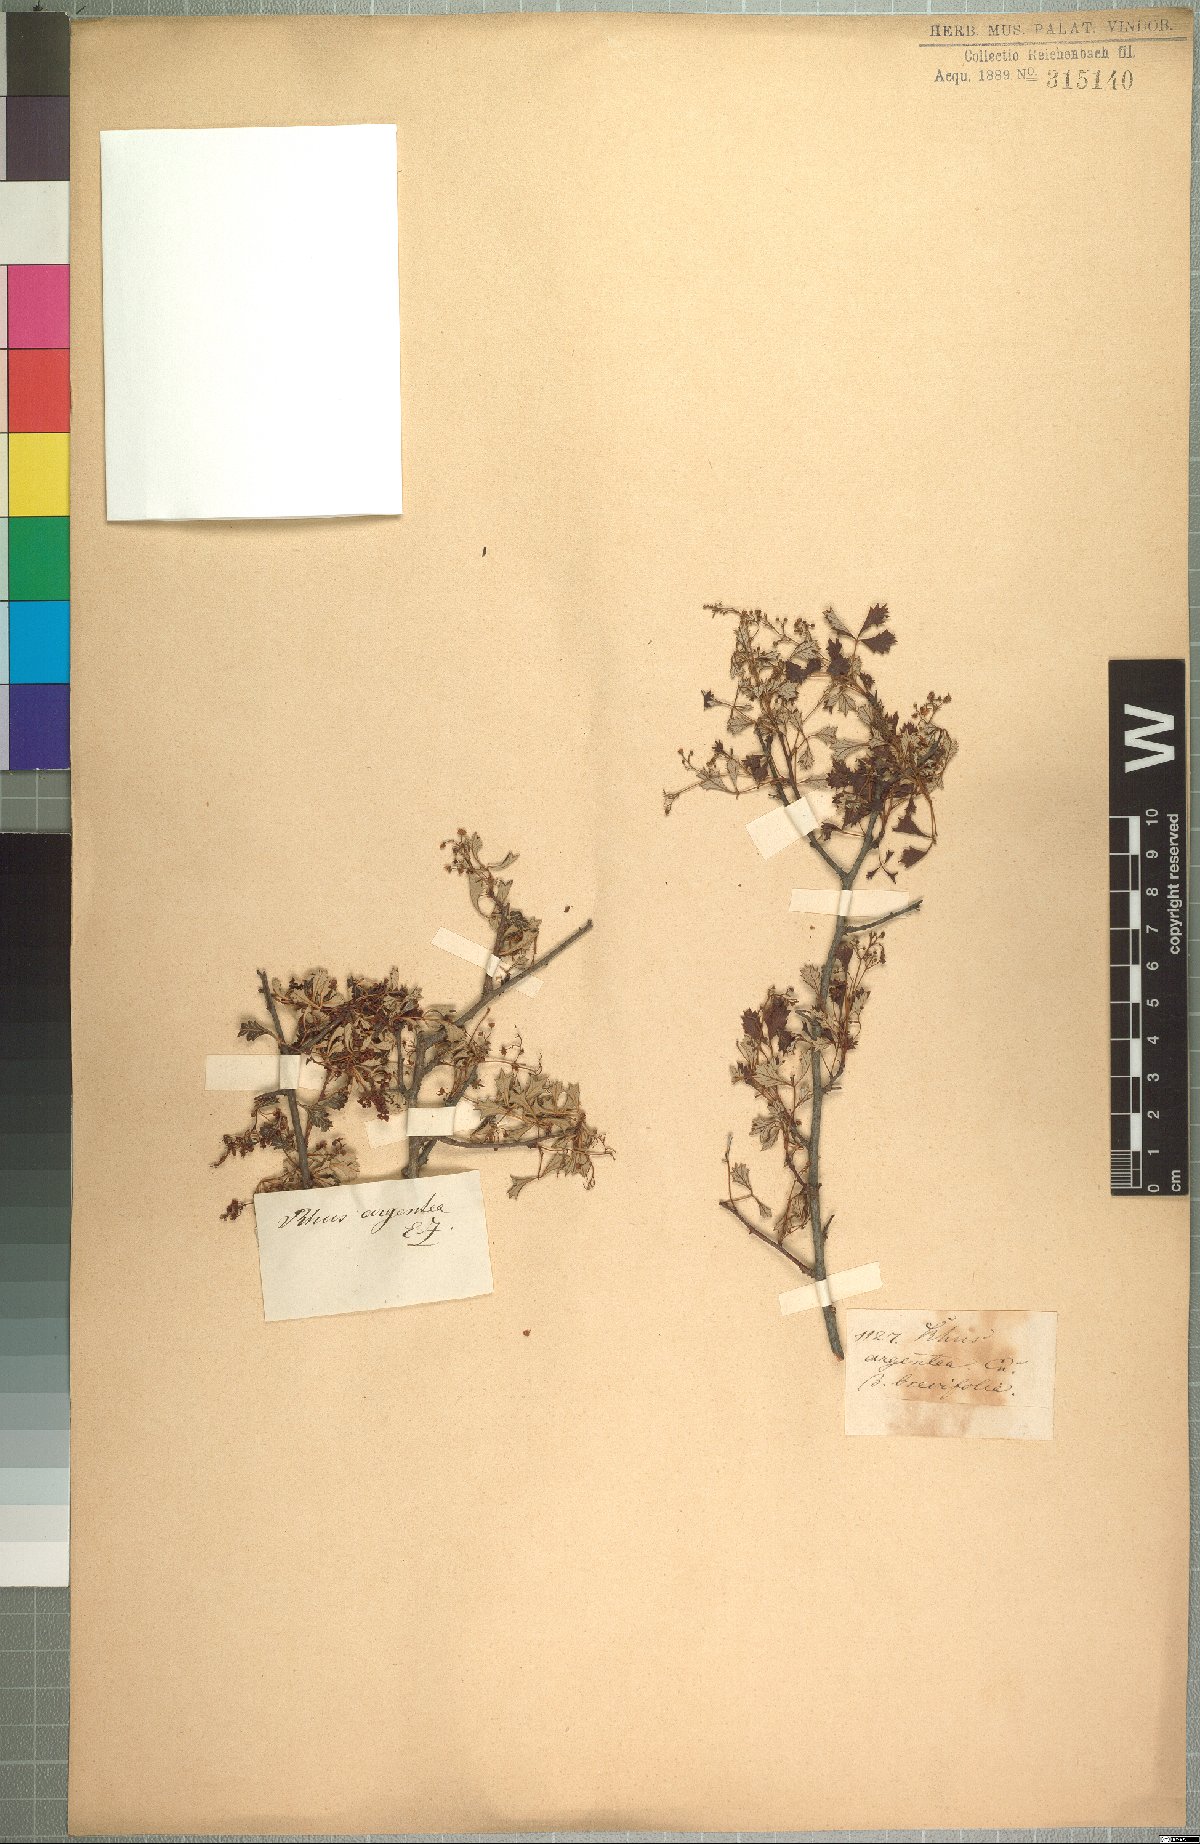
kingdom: Plantae
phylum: Tracheophyta
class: Magnoliopsida
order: Sapindales
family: Anacardiaceae
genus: Searsia
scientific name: Searsia dissecta
